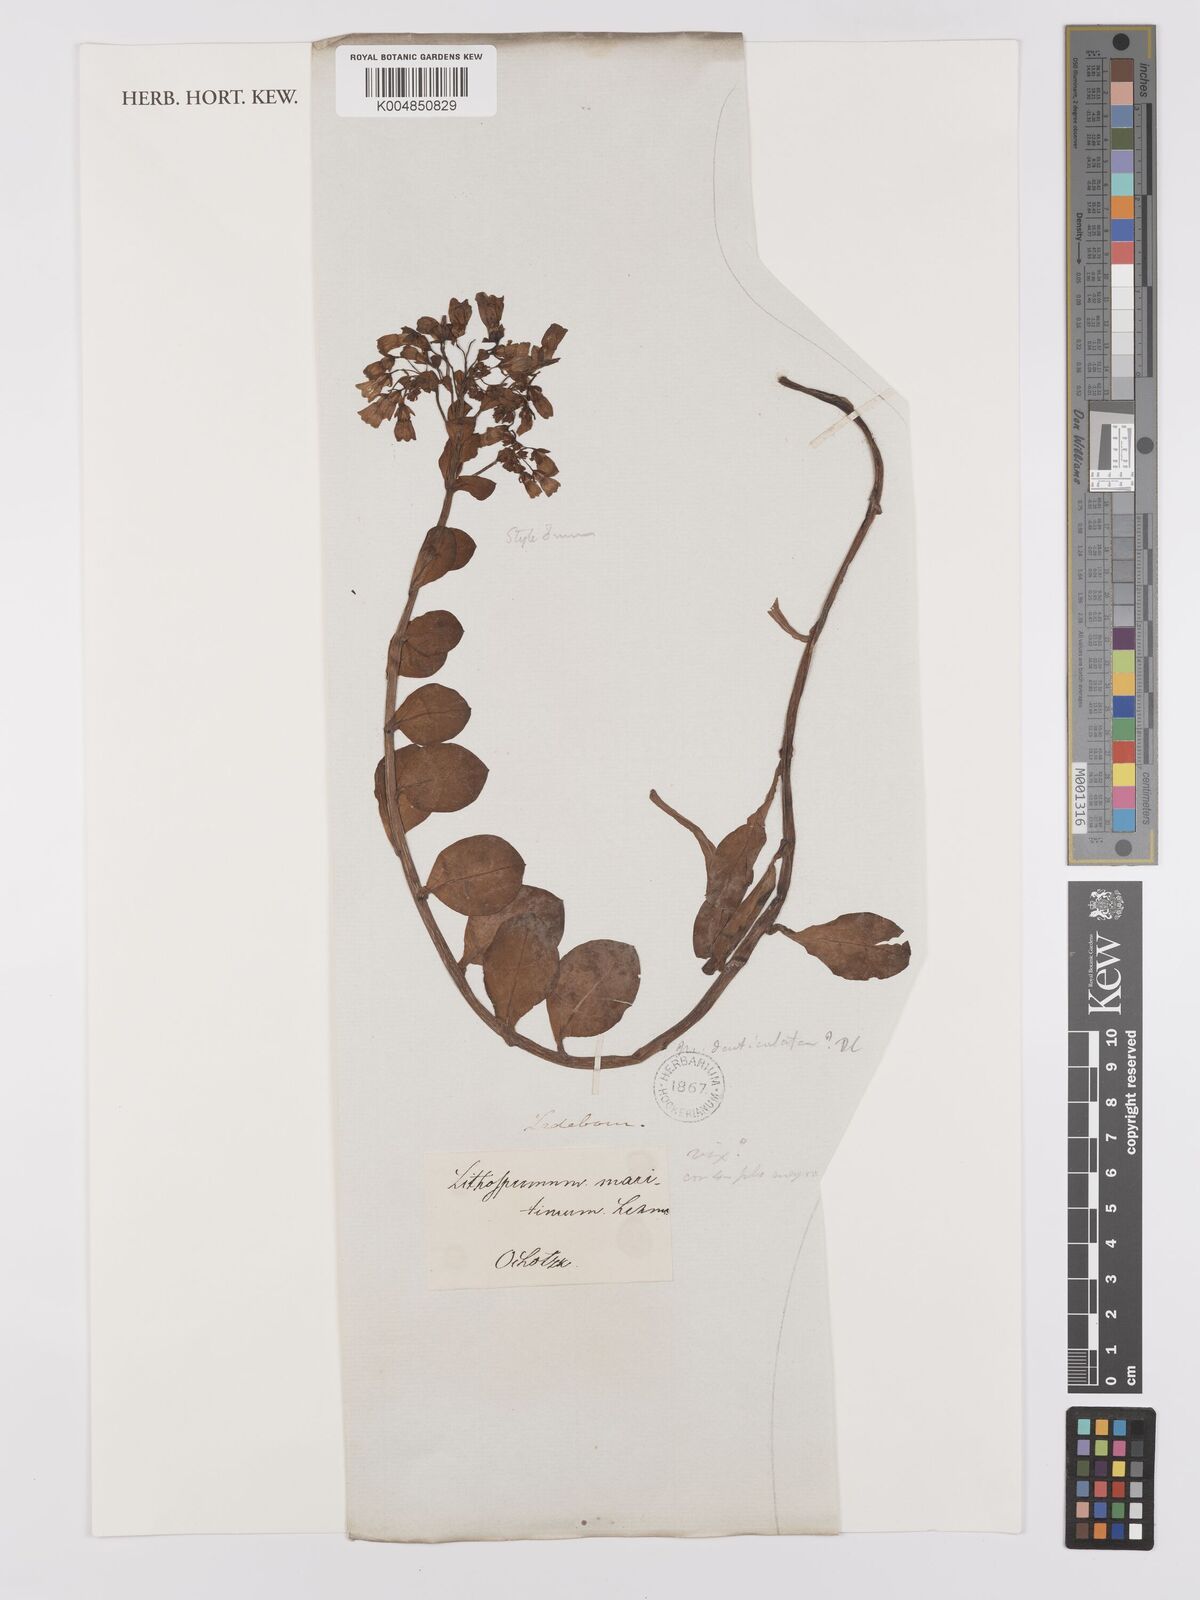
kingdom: Plantae
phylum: Tracheophyta
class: Magnoliopsida
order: Boraginales
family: Boraginaceae
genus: Mertensia
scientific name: Mertensia maritima
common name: Oysterplant
